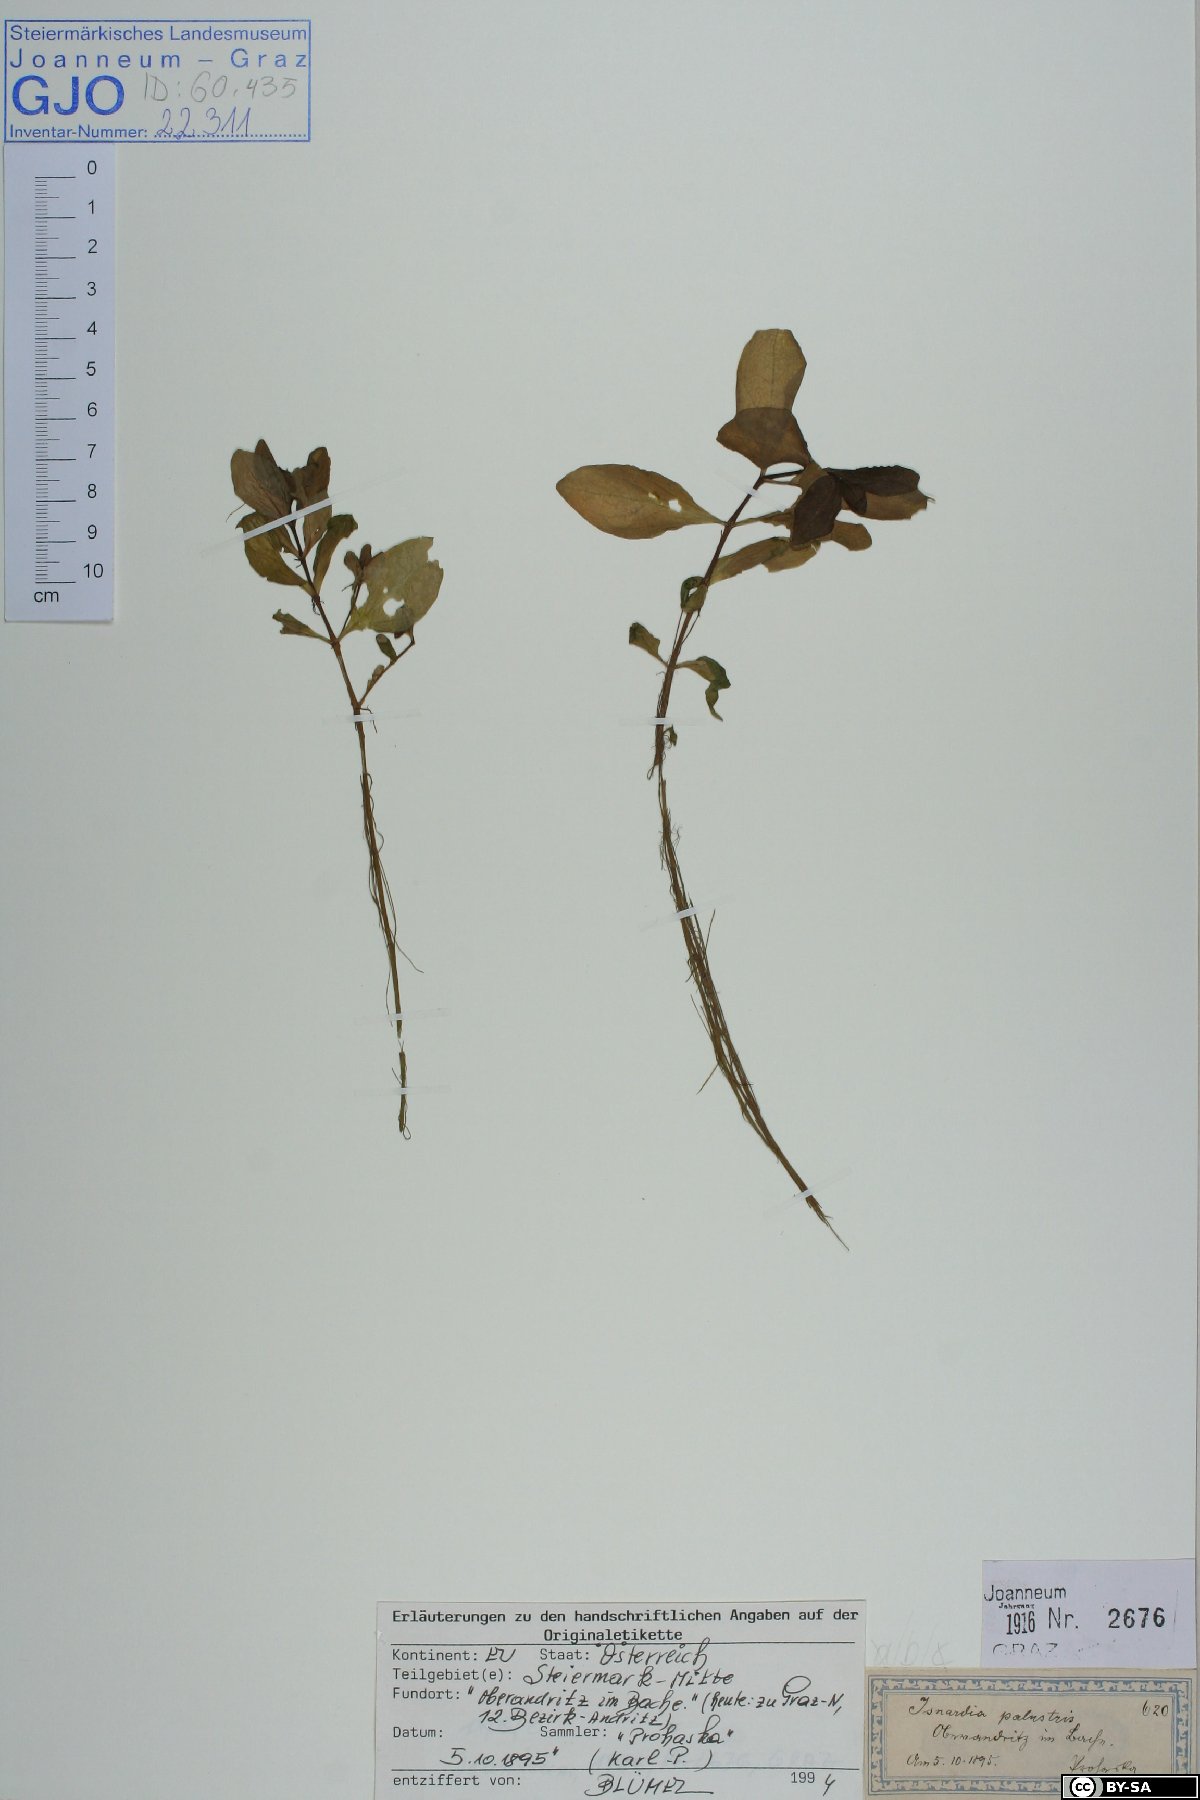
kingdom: Plantae
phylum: Tracheophyta
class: Magnoliopsida
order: Myrtales
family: Onagraceae
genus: Ludwigia
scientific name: Ludwigia palustris
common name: Hampshire-purslane
